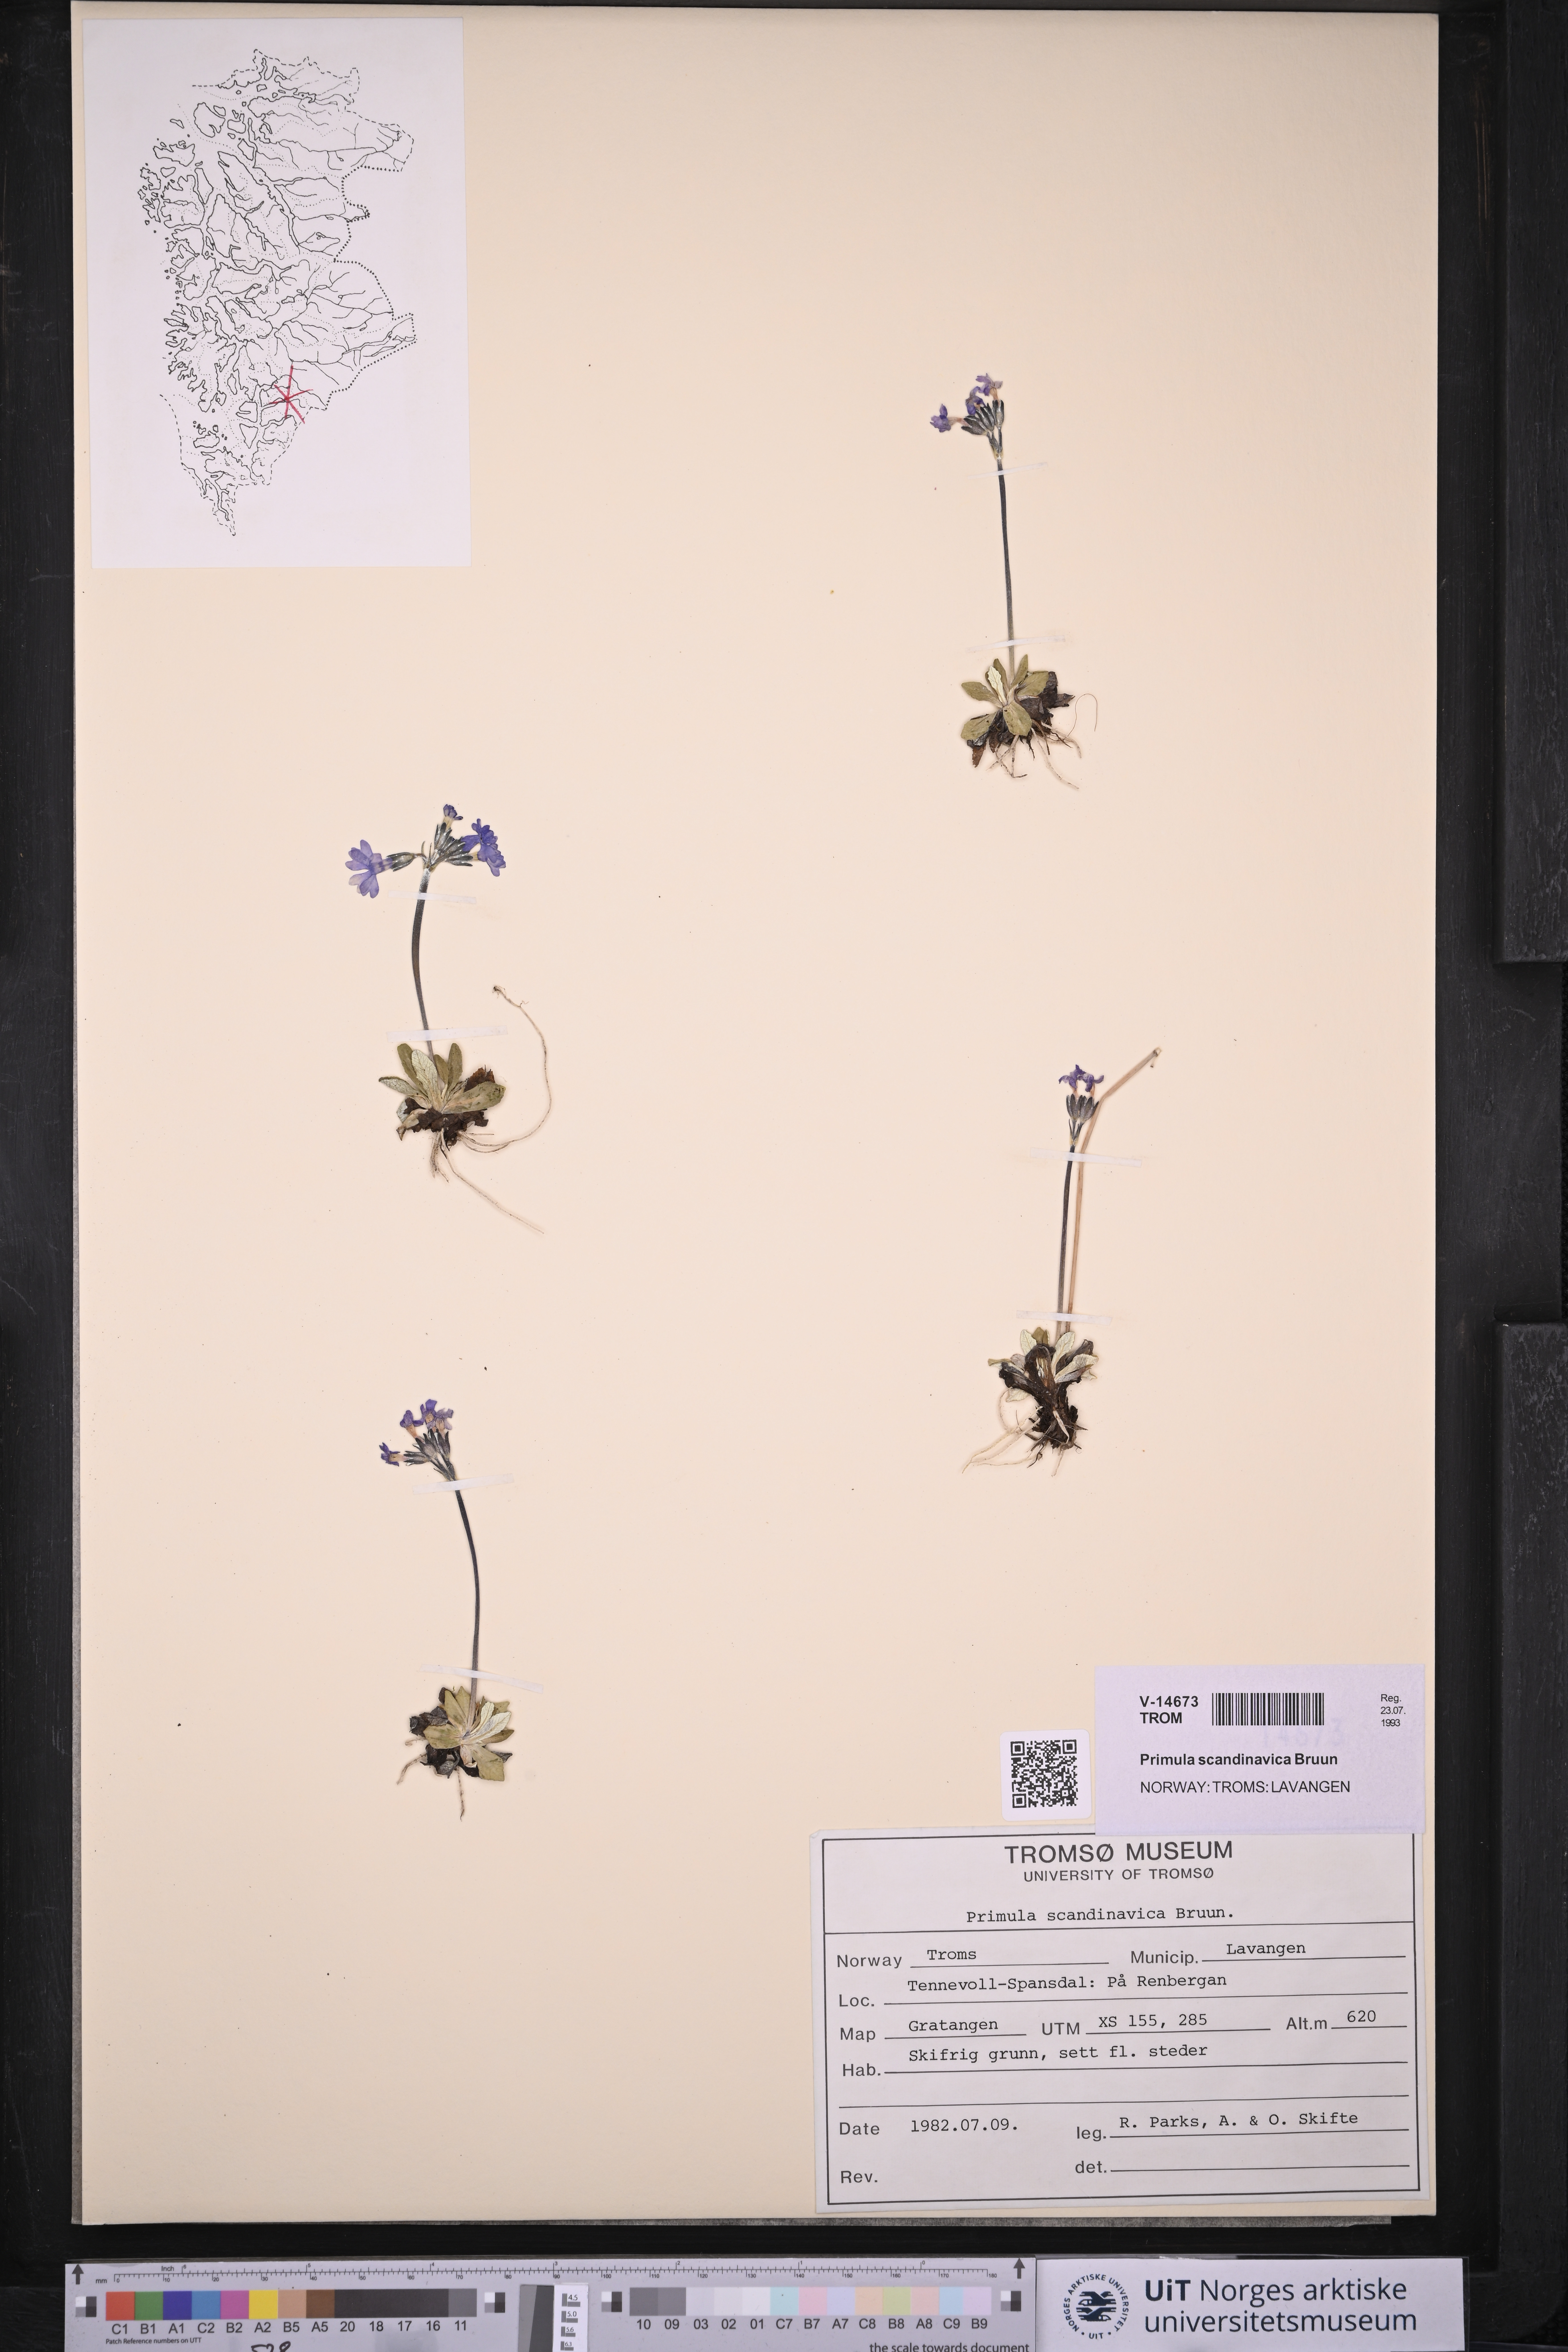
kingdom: Plantae
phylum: Tracheophyta
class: Magnoliopsida
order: Ericales
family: Primulaceae
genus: Primula
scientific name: Primula scandinavica
